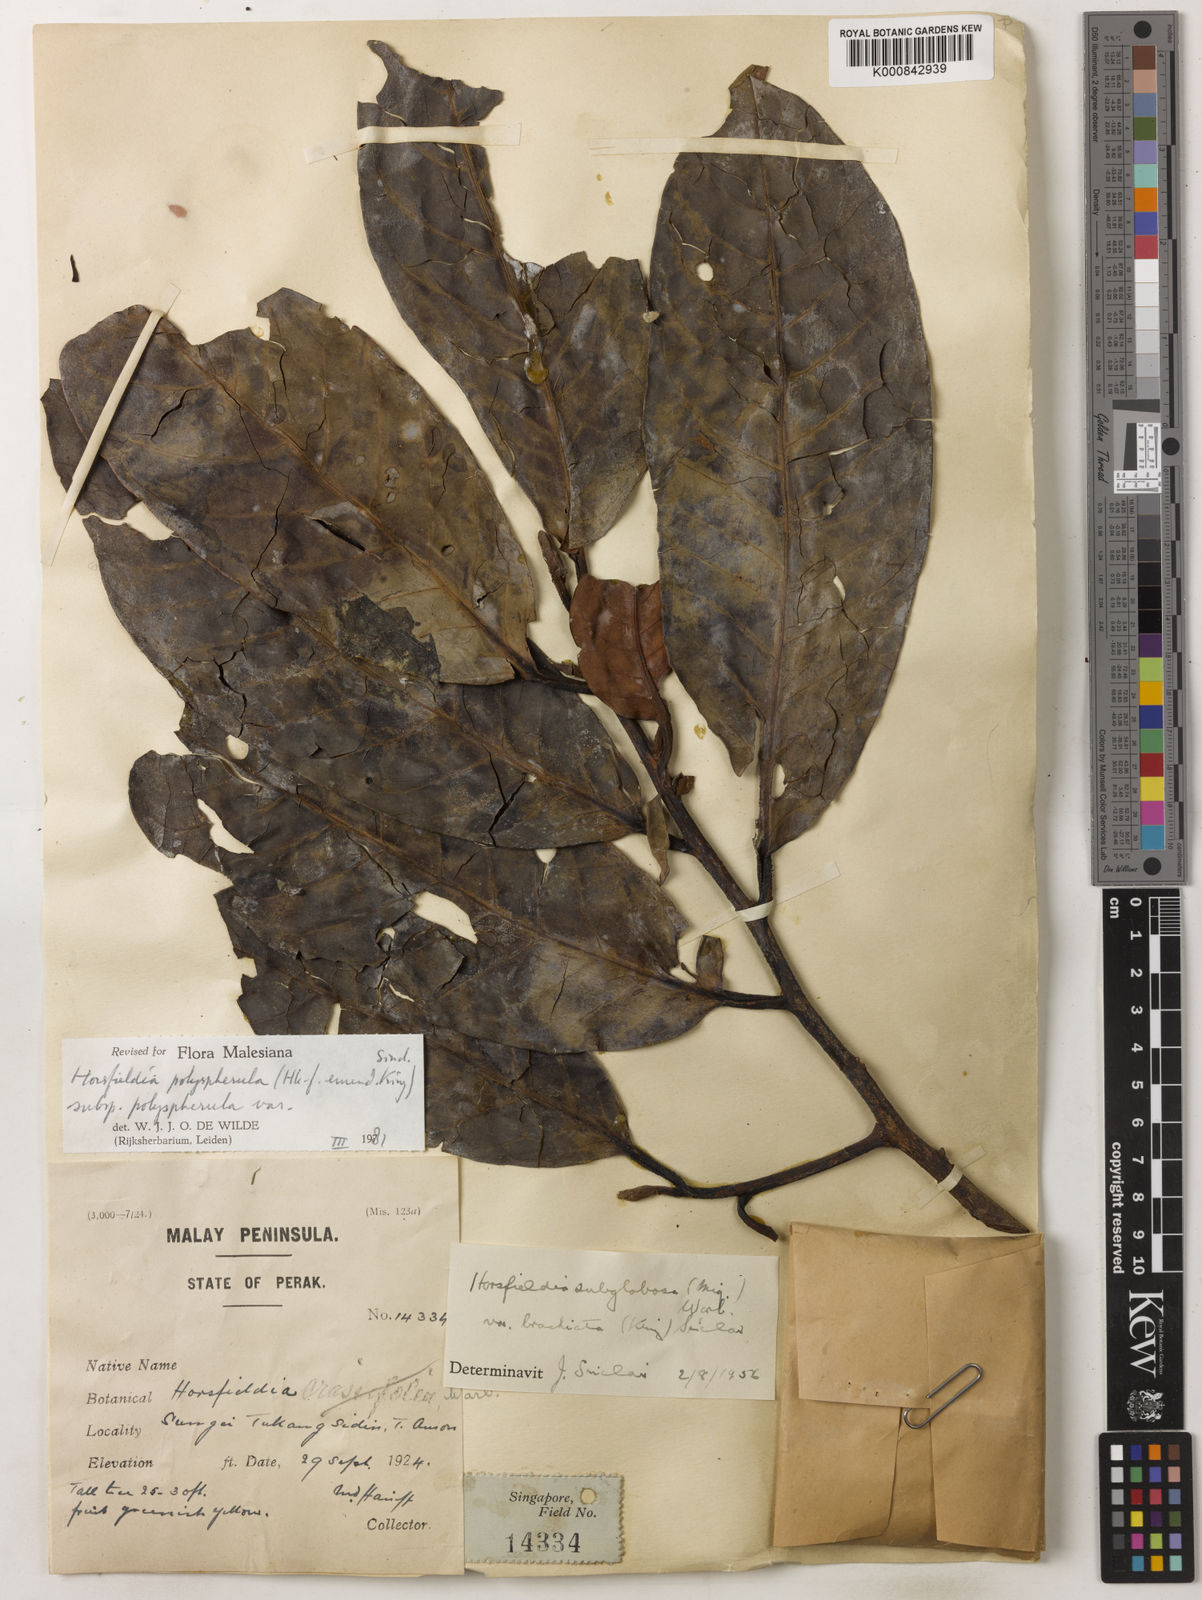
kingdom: Plantae
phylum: Tracheophyta
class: Magnoliopsida
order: Magnoliales
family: Myristicaceae
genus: Horsfieldia
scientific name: Horsfieldia
